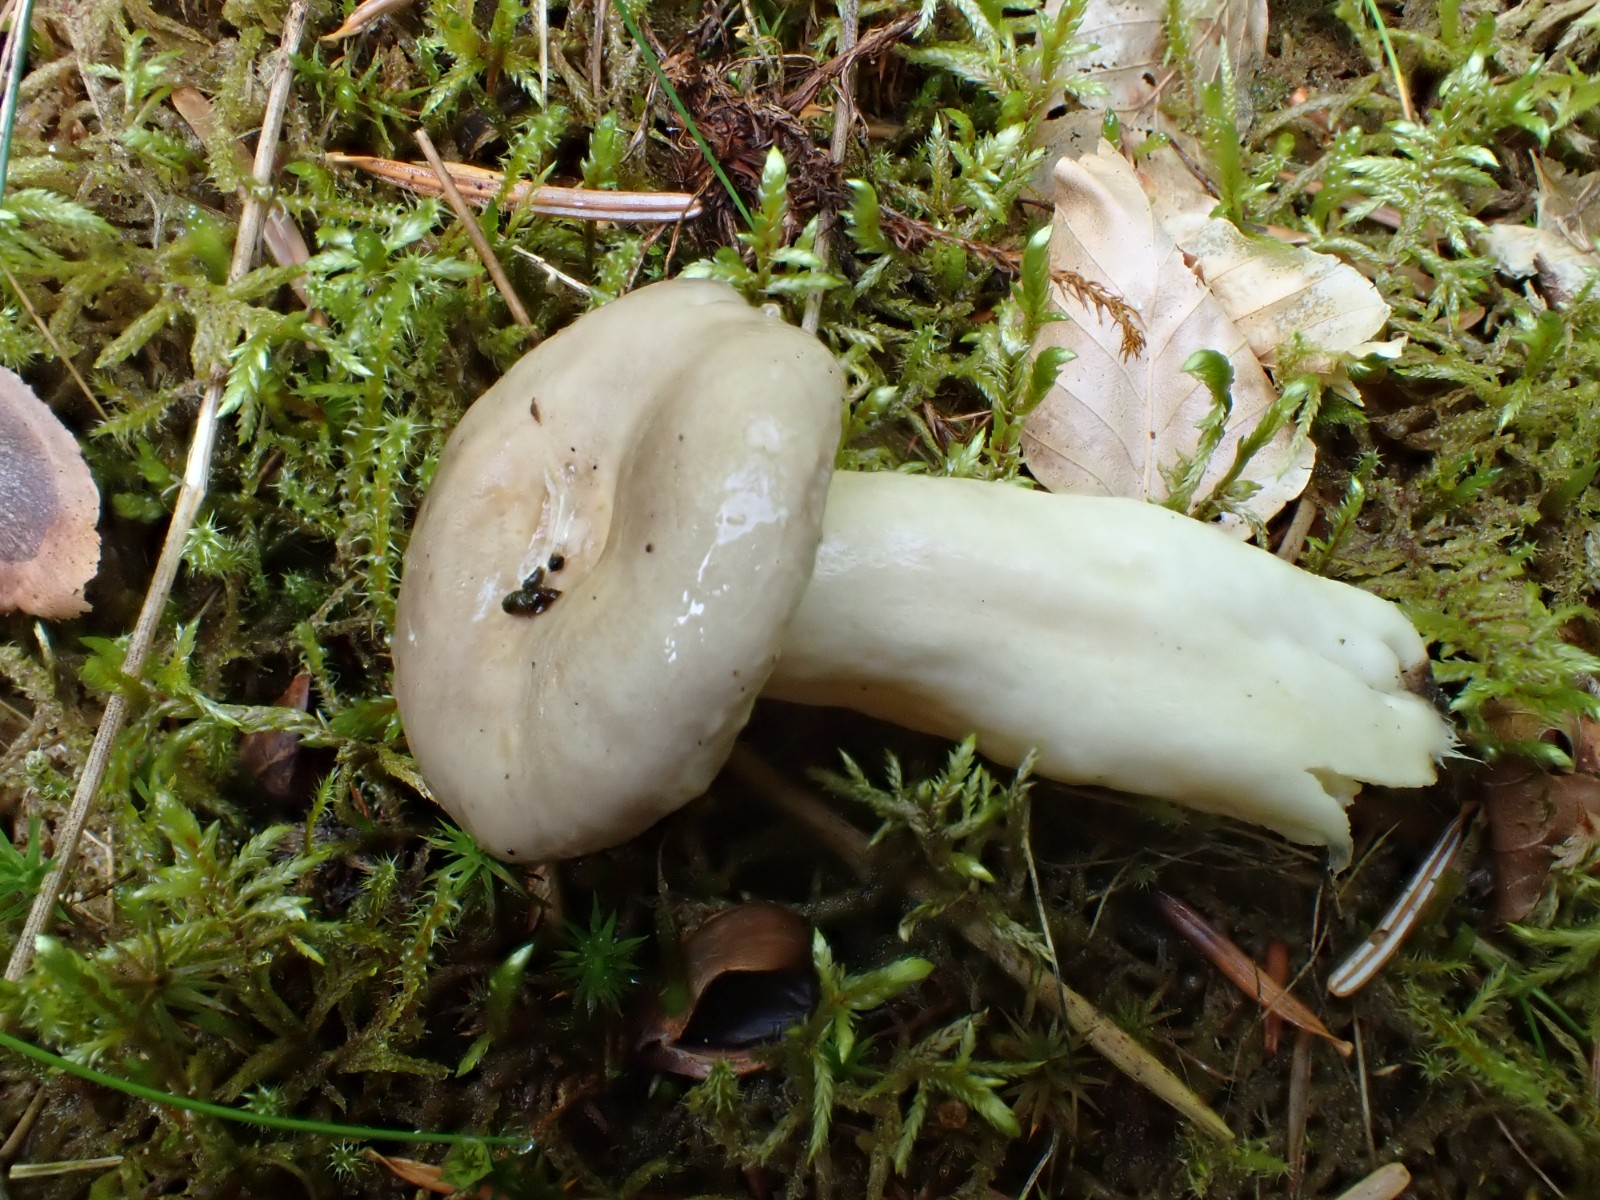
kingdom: Fungi
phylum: Basidiomycota
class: Agaricomycetes
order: Russulales
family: Russulaceae
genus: Lactarius
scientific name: Lactarius albocarneus
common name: ædelgran-mælkehat
